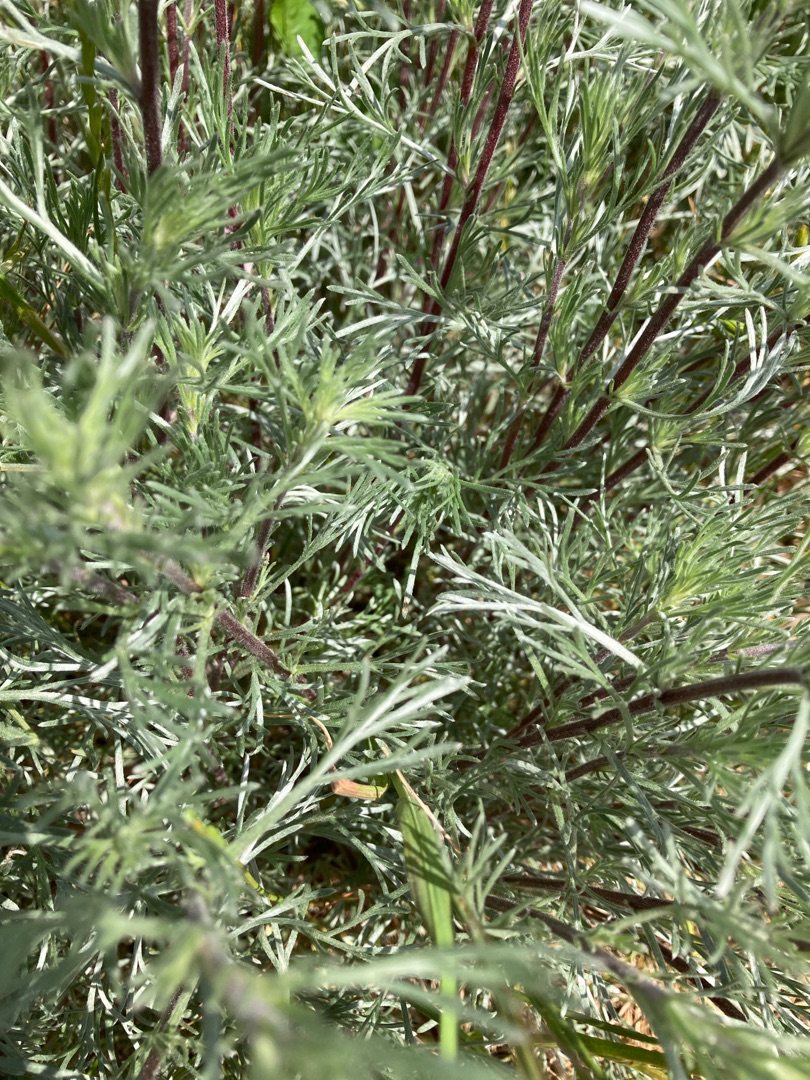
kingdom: Plantae
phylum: Tracheophyta
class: Magnoliopsida
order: Asterales
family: Asteraceae
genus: Artemisia
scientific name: Artemisia campestris
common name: Mark-bynke
